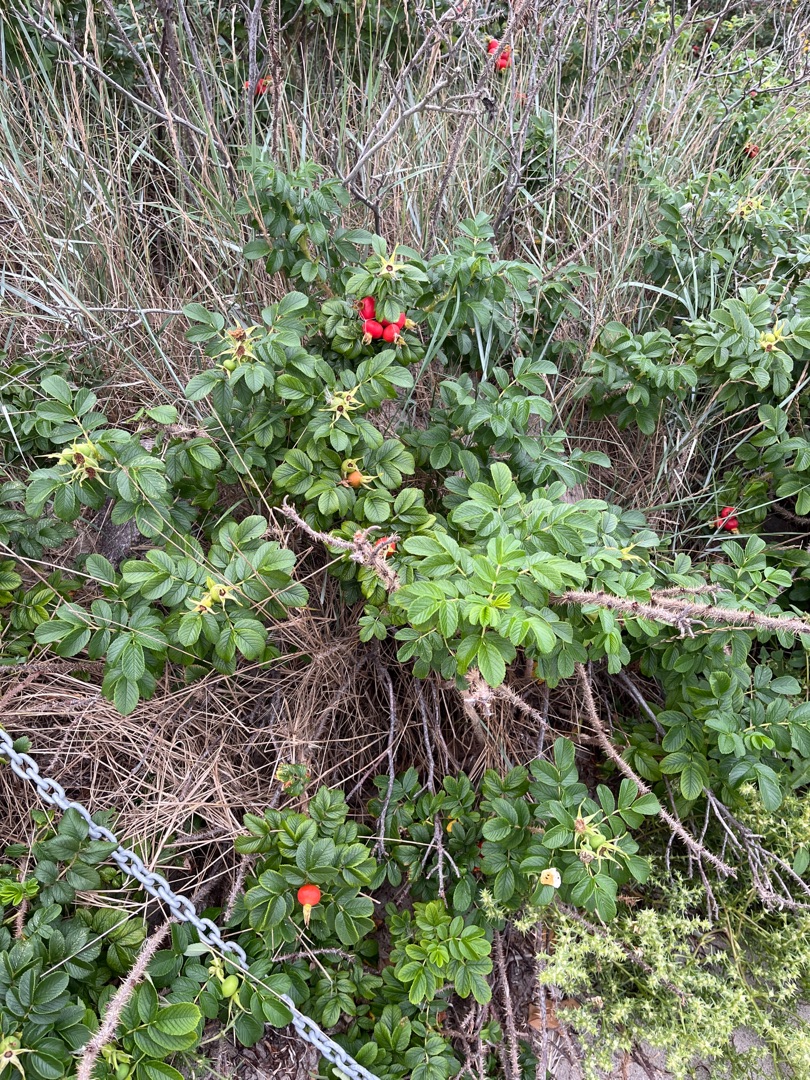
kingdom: Plantae
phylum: Tracheophyta
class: Magnoliopsida
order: Rosales
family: Rosaceae
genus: Rosa
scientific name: Rosa rugosa
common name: Rynket rose
